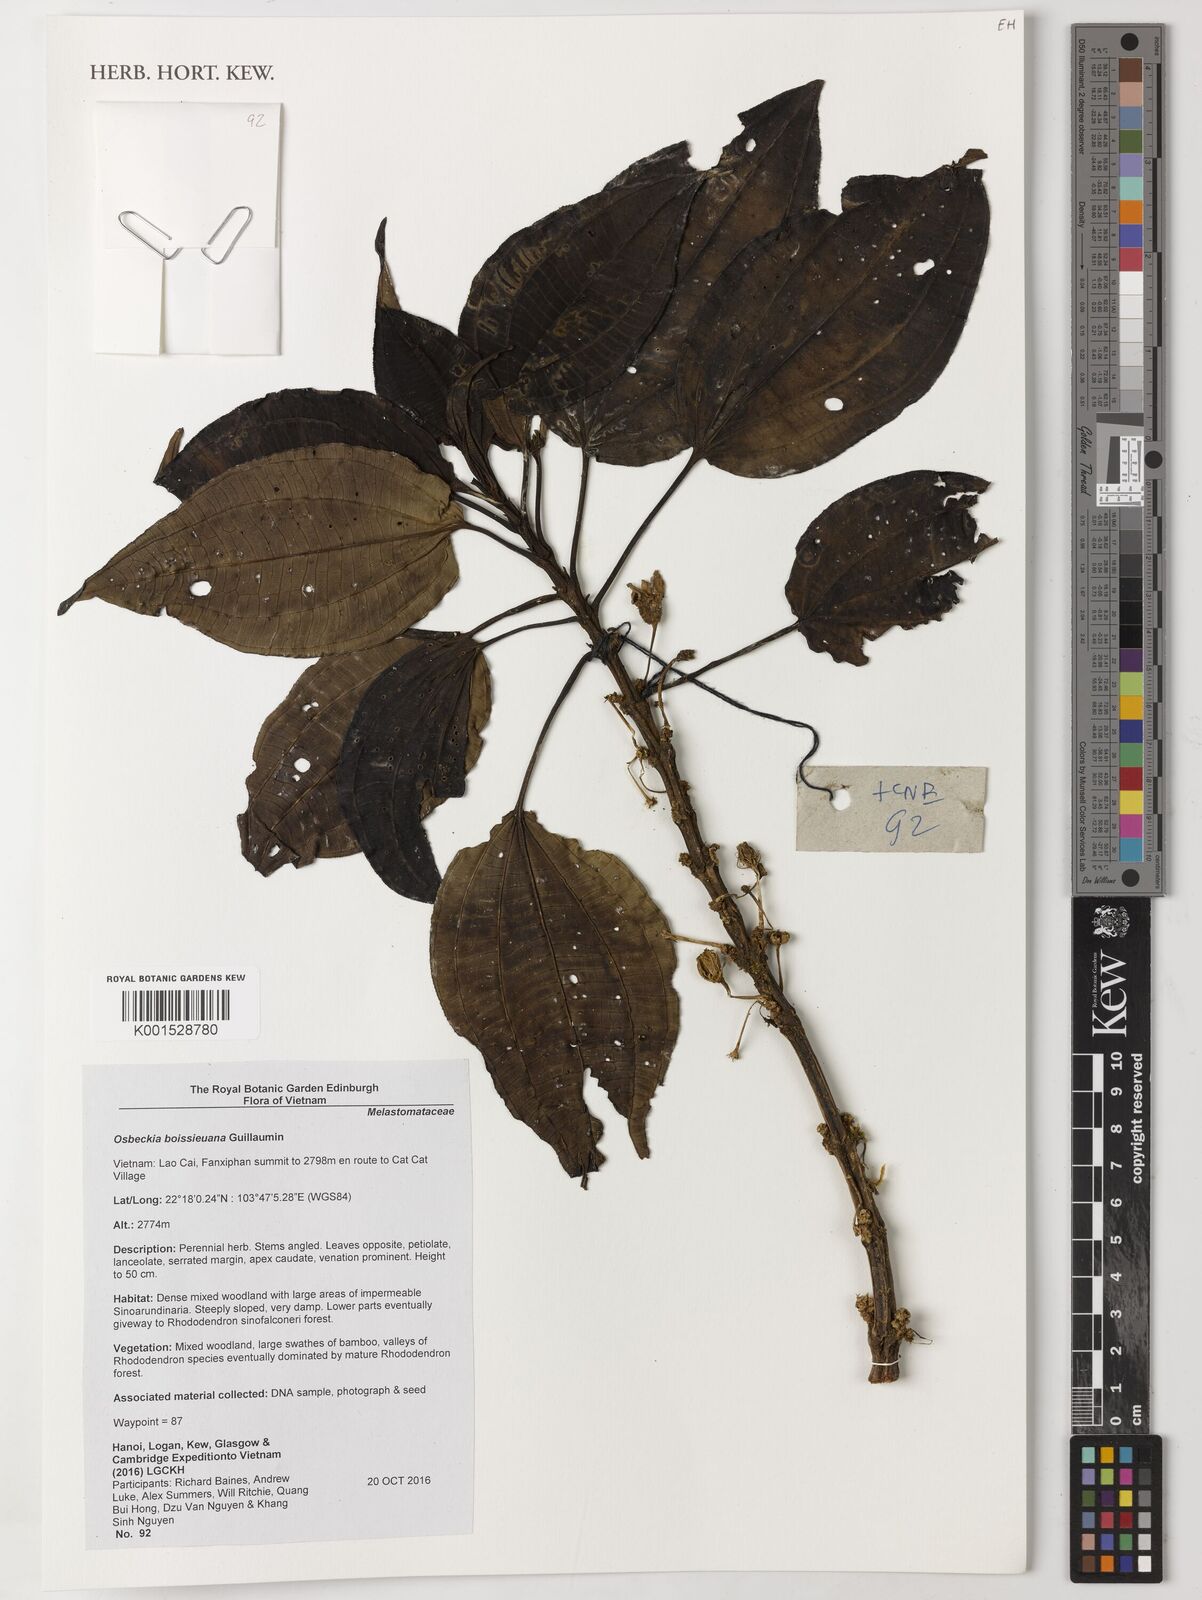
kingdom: Plantae
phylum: Tracheophyta
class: Magnoliopsida
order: Myrtales
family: Melastomataceae
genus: Osbeckia
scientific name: Osbeckia chinensis
